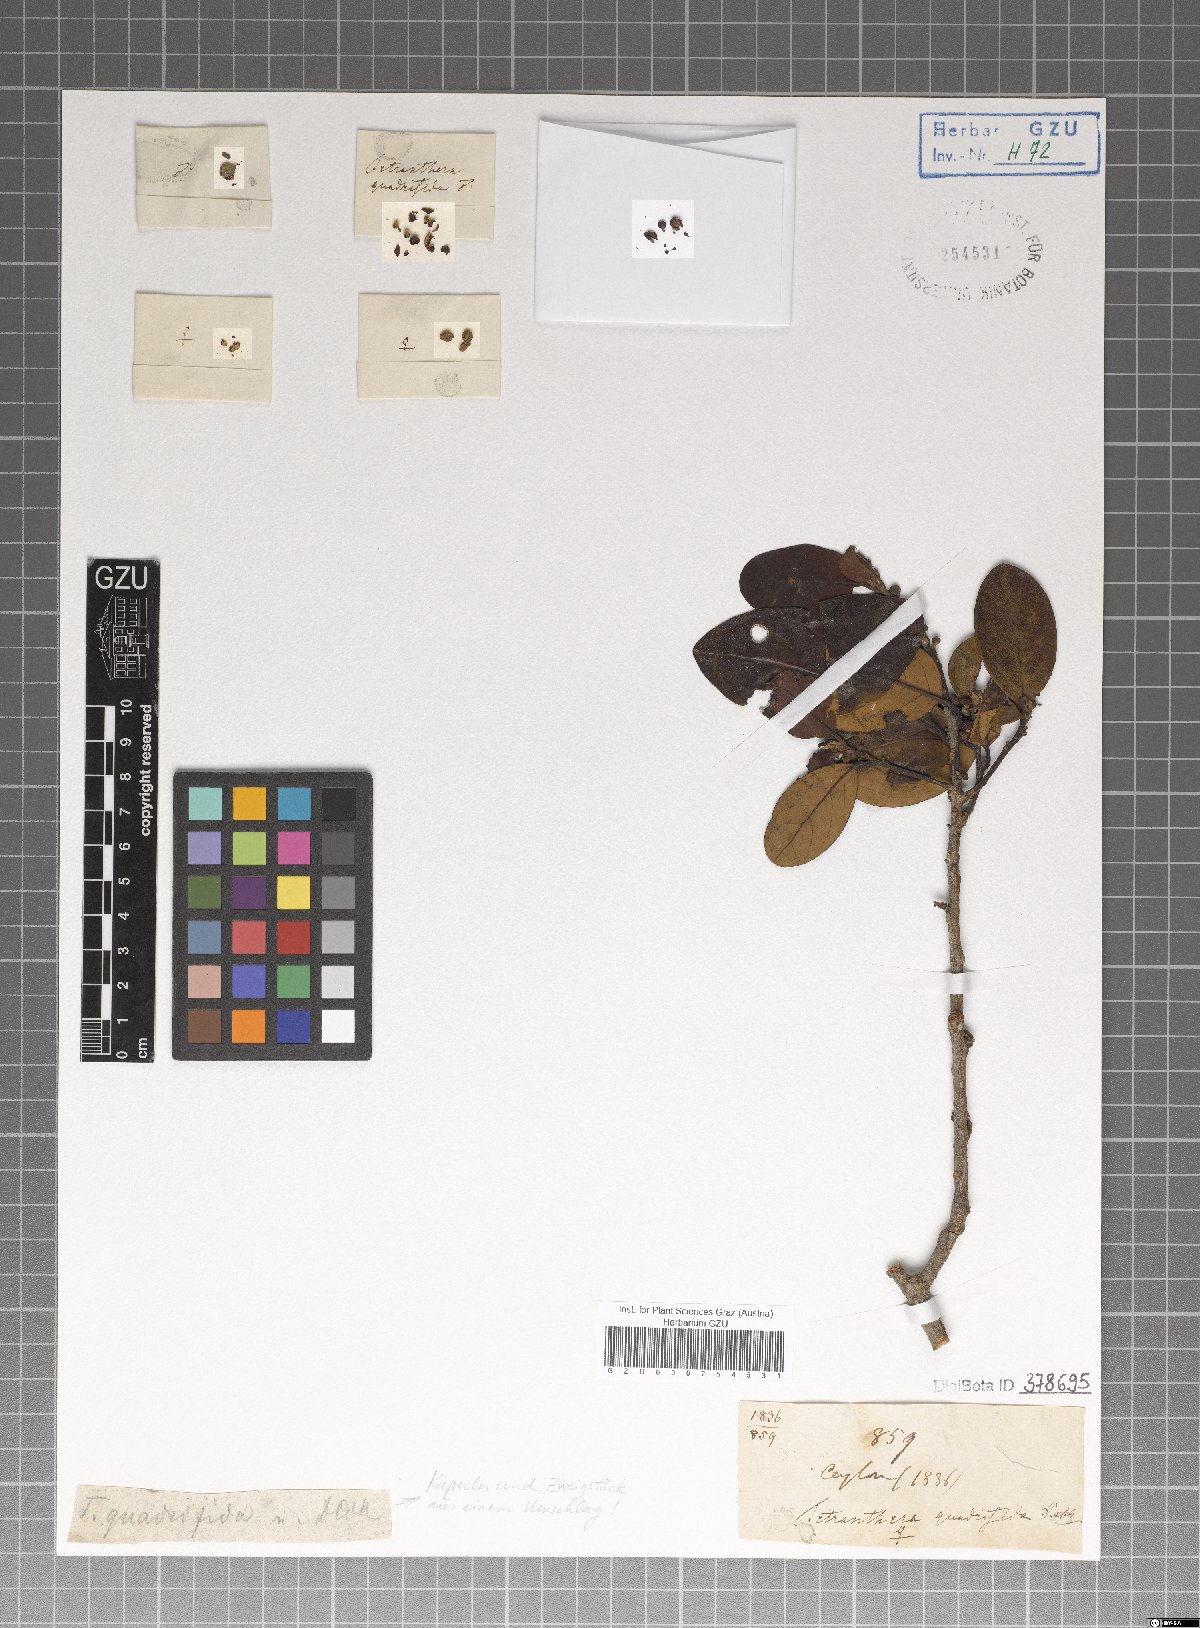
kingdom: Plantae
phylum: Tracheophyta
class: Magnoliopsida
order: Laurales
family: Lauraceae
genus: Litsea
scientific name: Litsea
